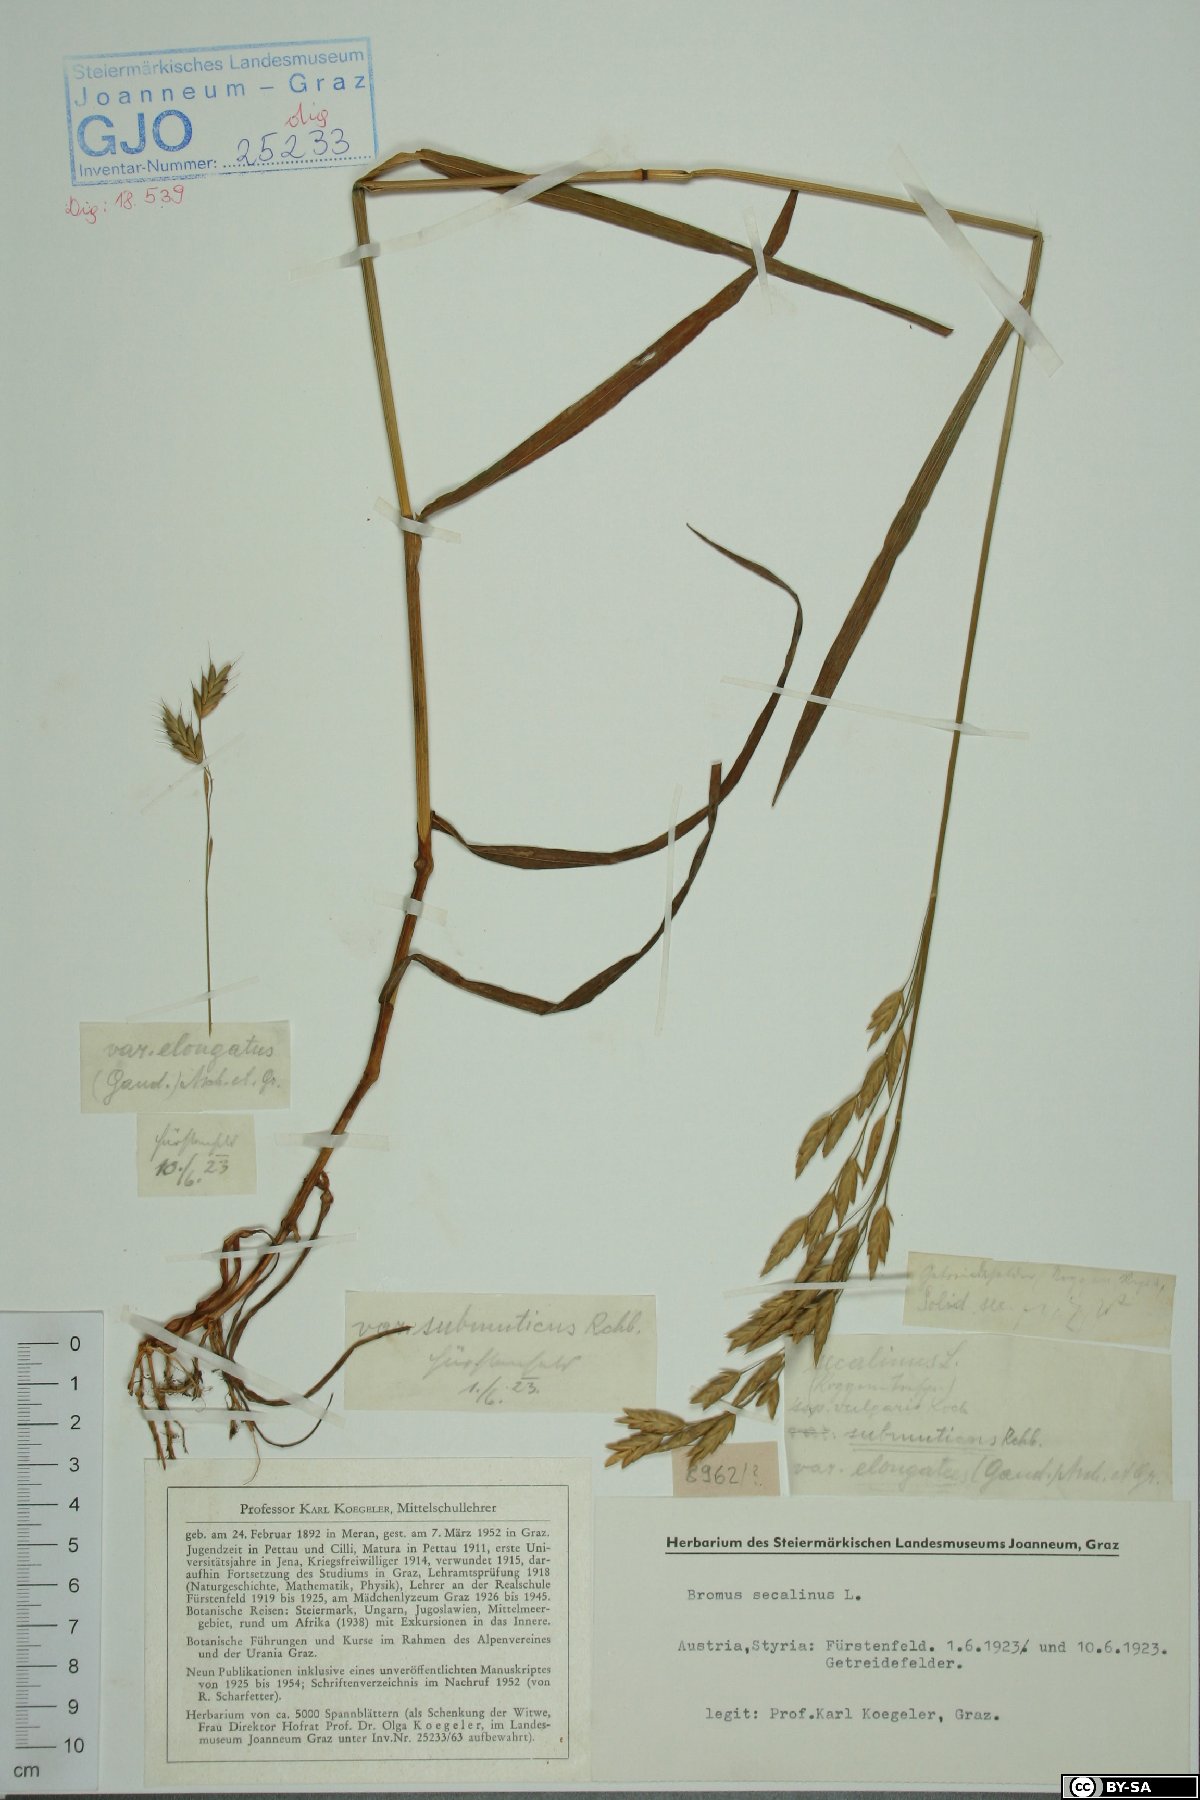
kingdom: Plantae
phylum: Tracheophyta
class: Liliopsida
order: Poales
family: Poaceae
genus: Bromus
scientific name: Bromus secalinus
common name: Rye brome
